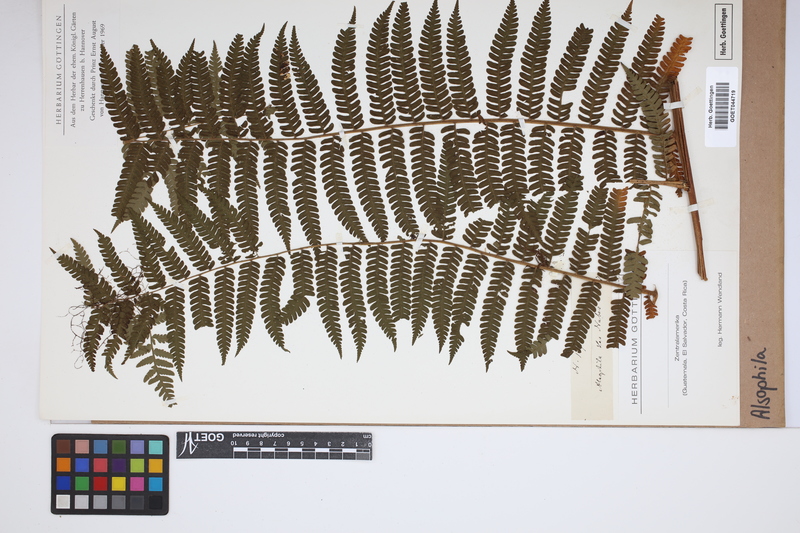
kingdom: Plantae
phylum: Tracheophyta
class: Polypodiopsida
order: Cyatheales
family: Cyatheaceae
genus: Alsophila
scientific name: Alsophila
